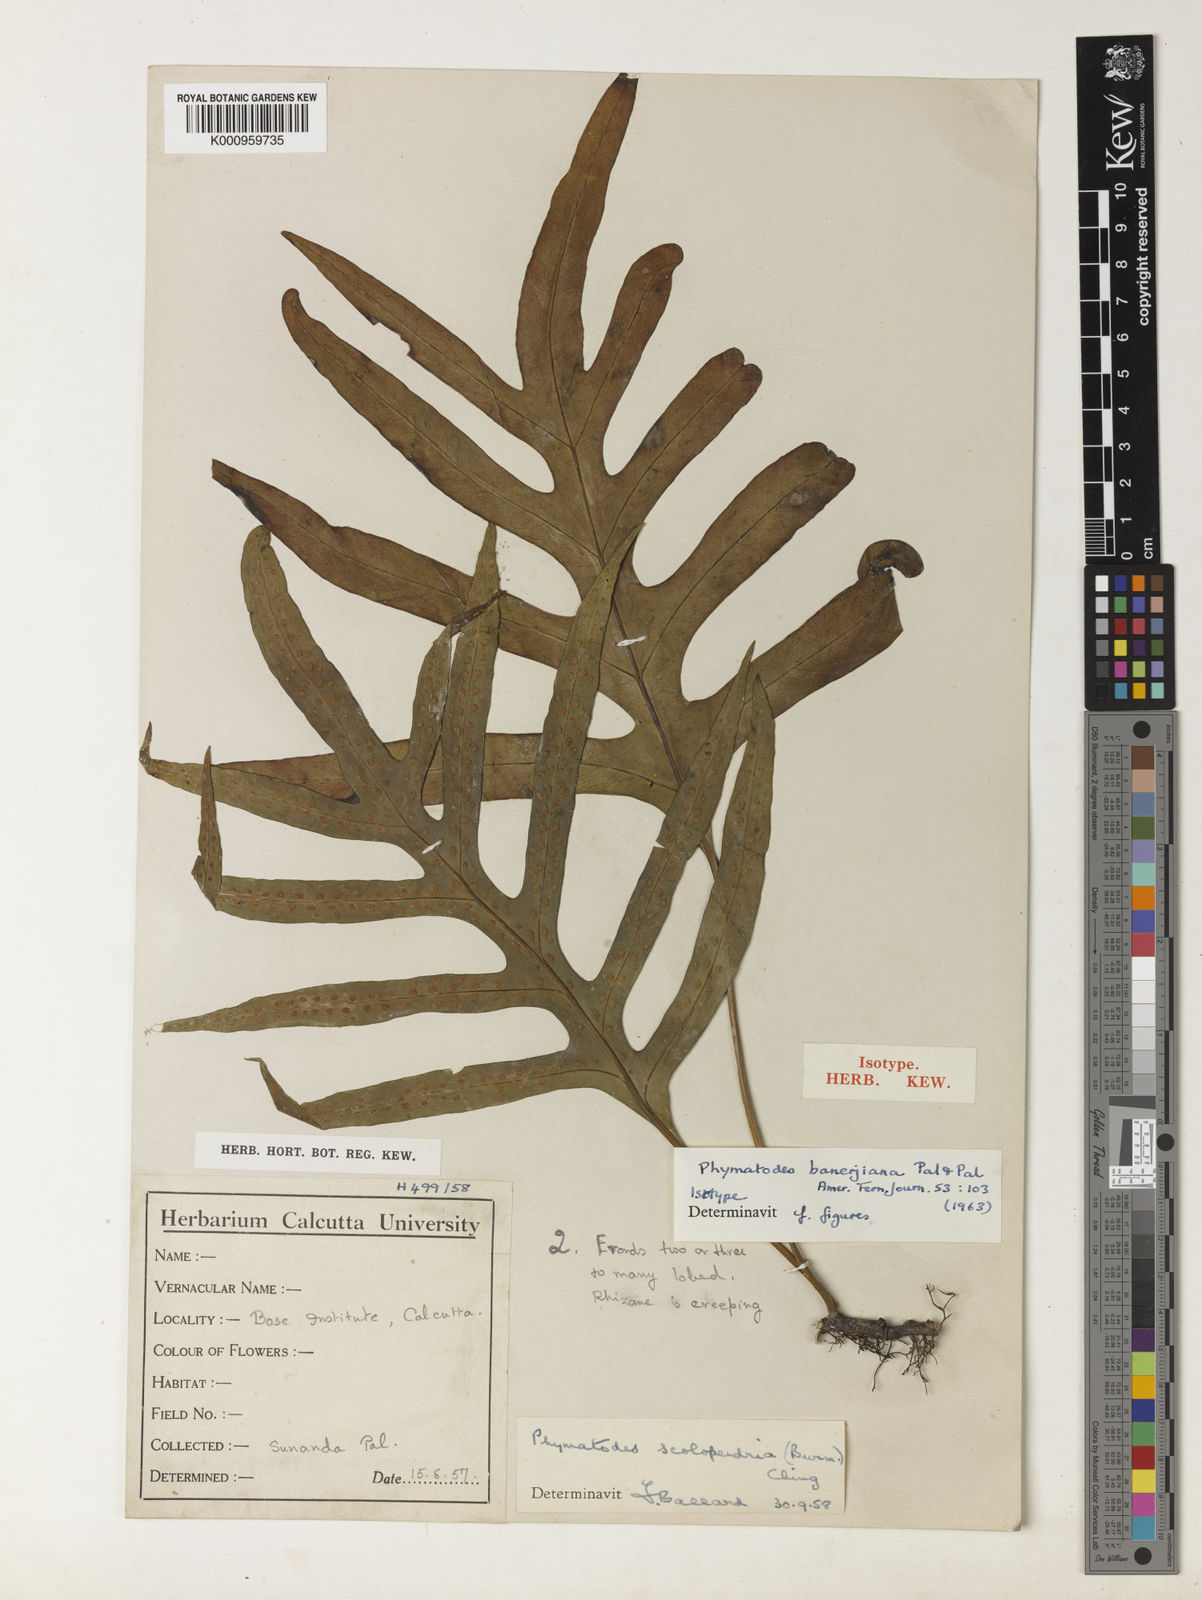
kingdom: Plantae
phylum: Tracheophyta
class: Polypodiopsida
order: Polypodiales
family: Polypodiaceae
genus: Microsorum
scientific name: Microsorum scolopendria
